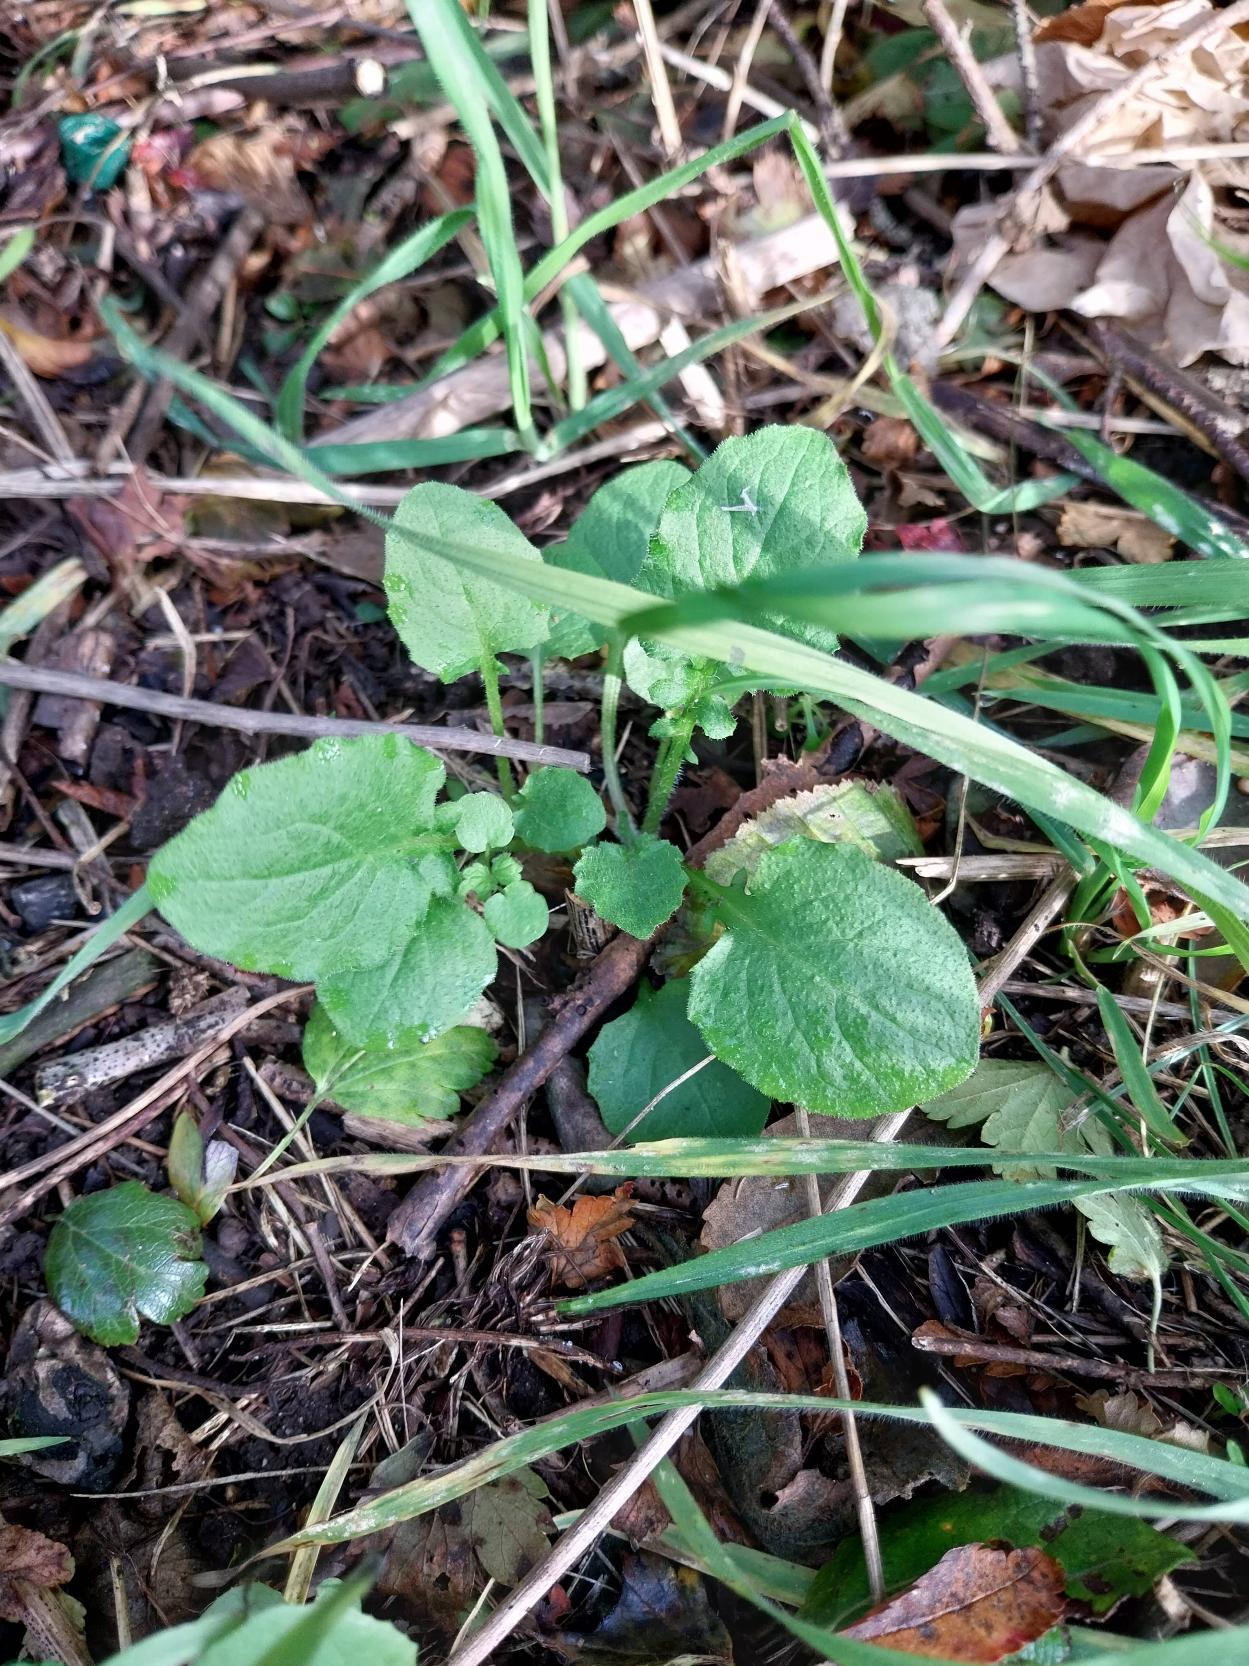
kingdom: Plantae
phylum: Tracheophyta
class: Magnoliopsida
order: Asterales
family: Asteraceae
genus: Lapsana
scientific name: Lapsana communis
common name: Haremad
